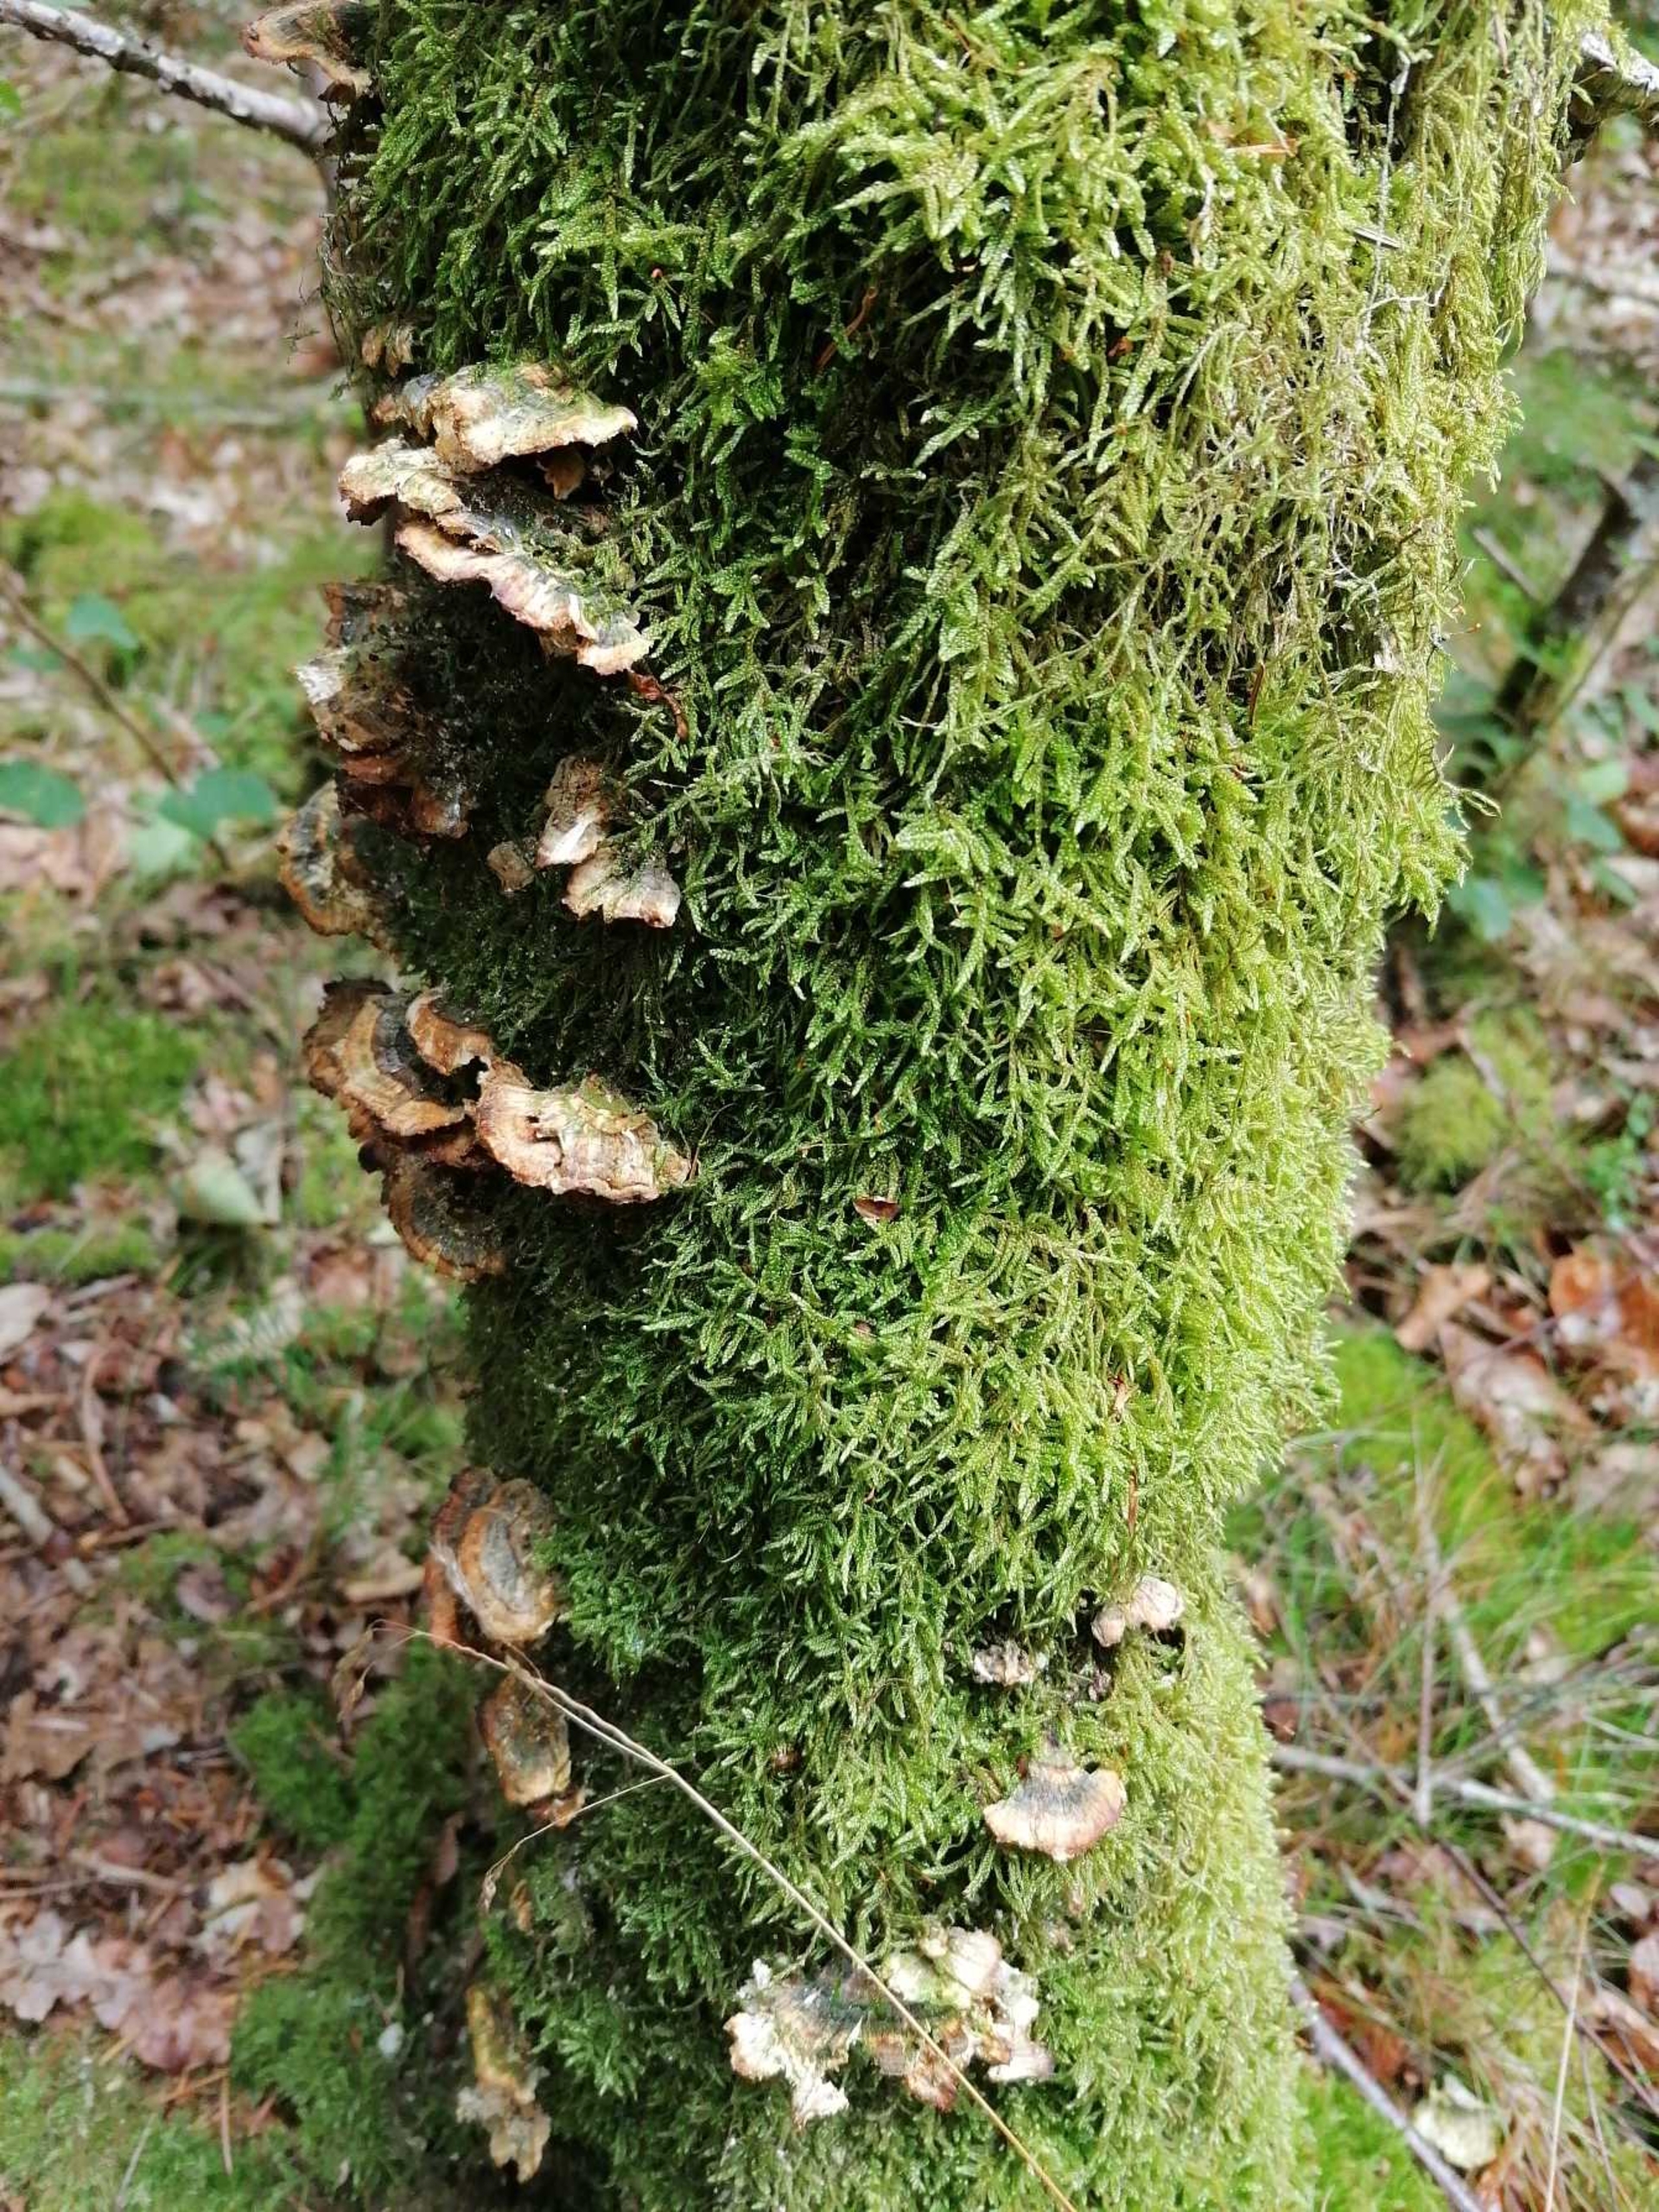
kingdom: Fungi
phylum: Basidiomycota
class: Agaricomycetes
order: Polyporales
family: Polyporaceae
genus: Trametes
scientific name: Trametes versicolor
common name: Broget læderporesvamp
